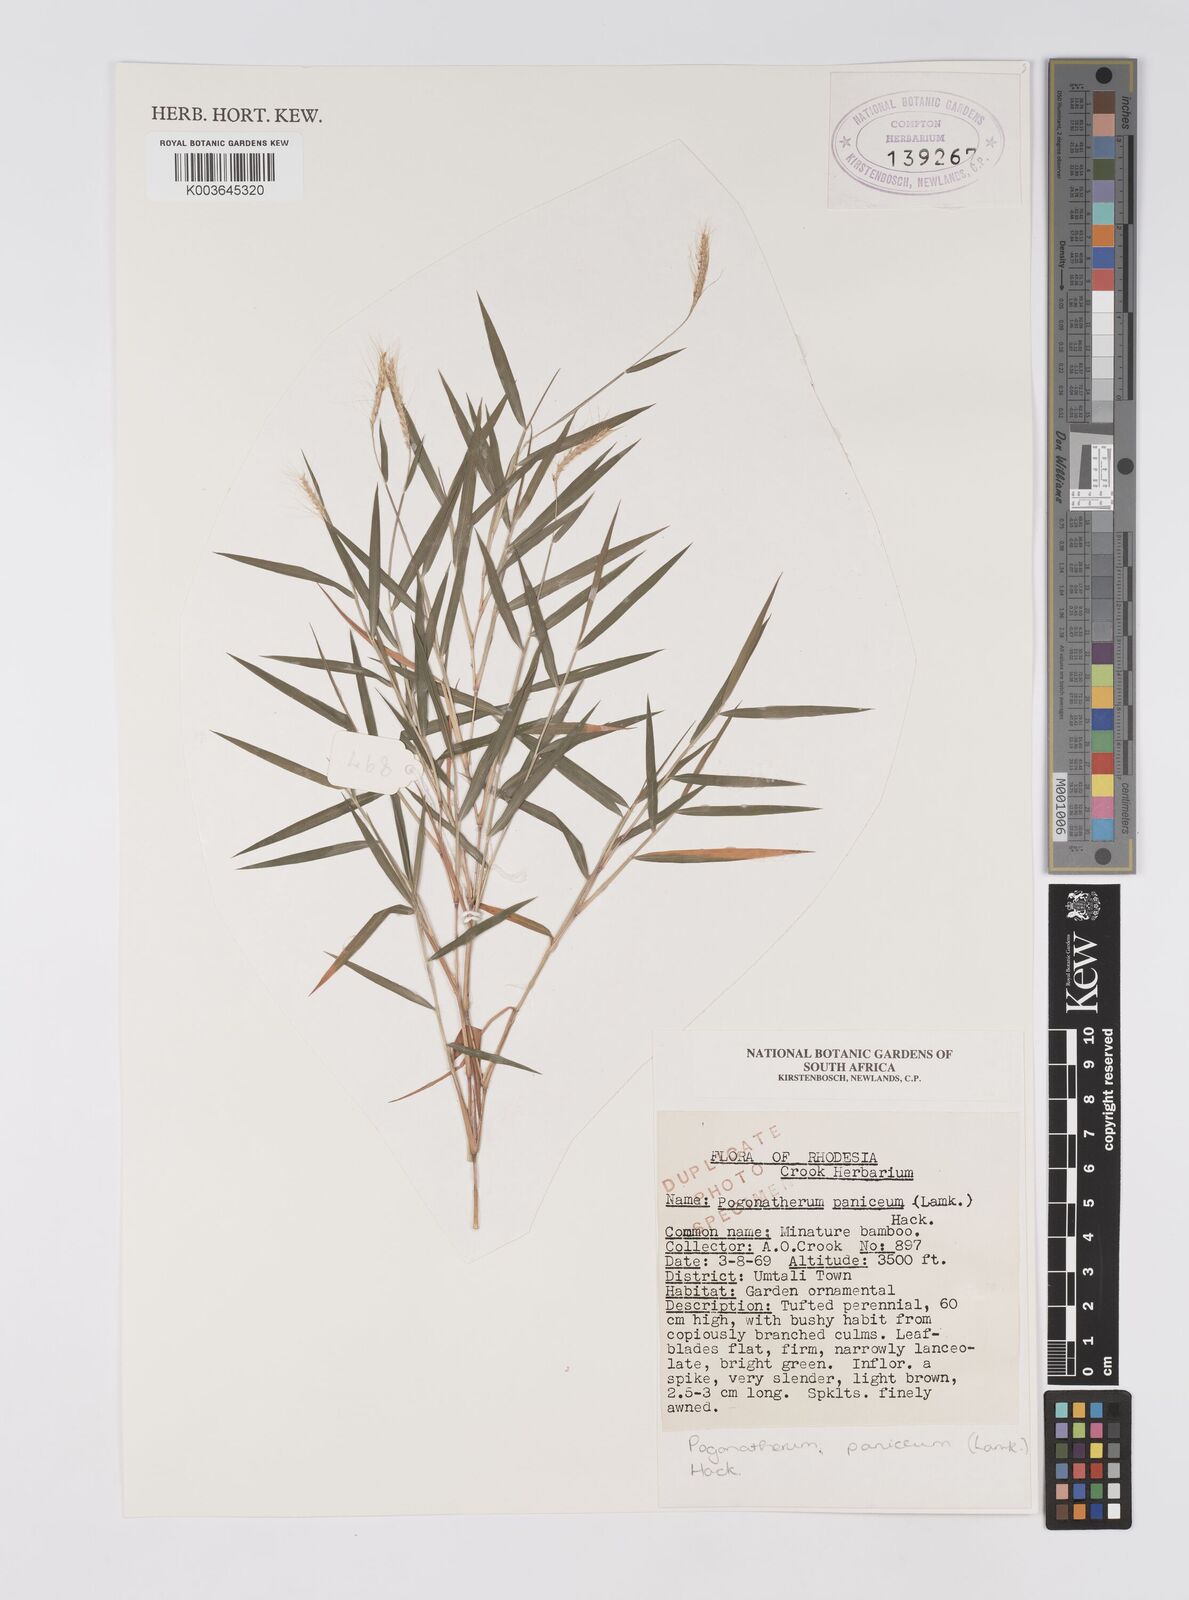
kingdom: Plantae
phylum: Tracheophyta
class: Liliopsida
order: Poales
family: Poaceae
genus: Pogonatherum
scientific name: Pogonatherum paniceum
